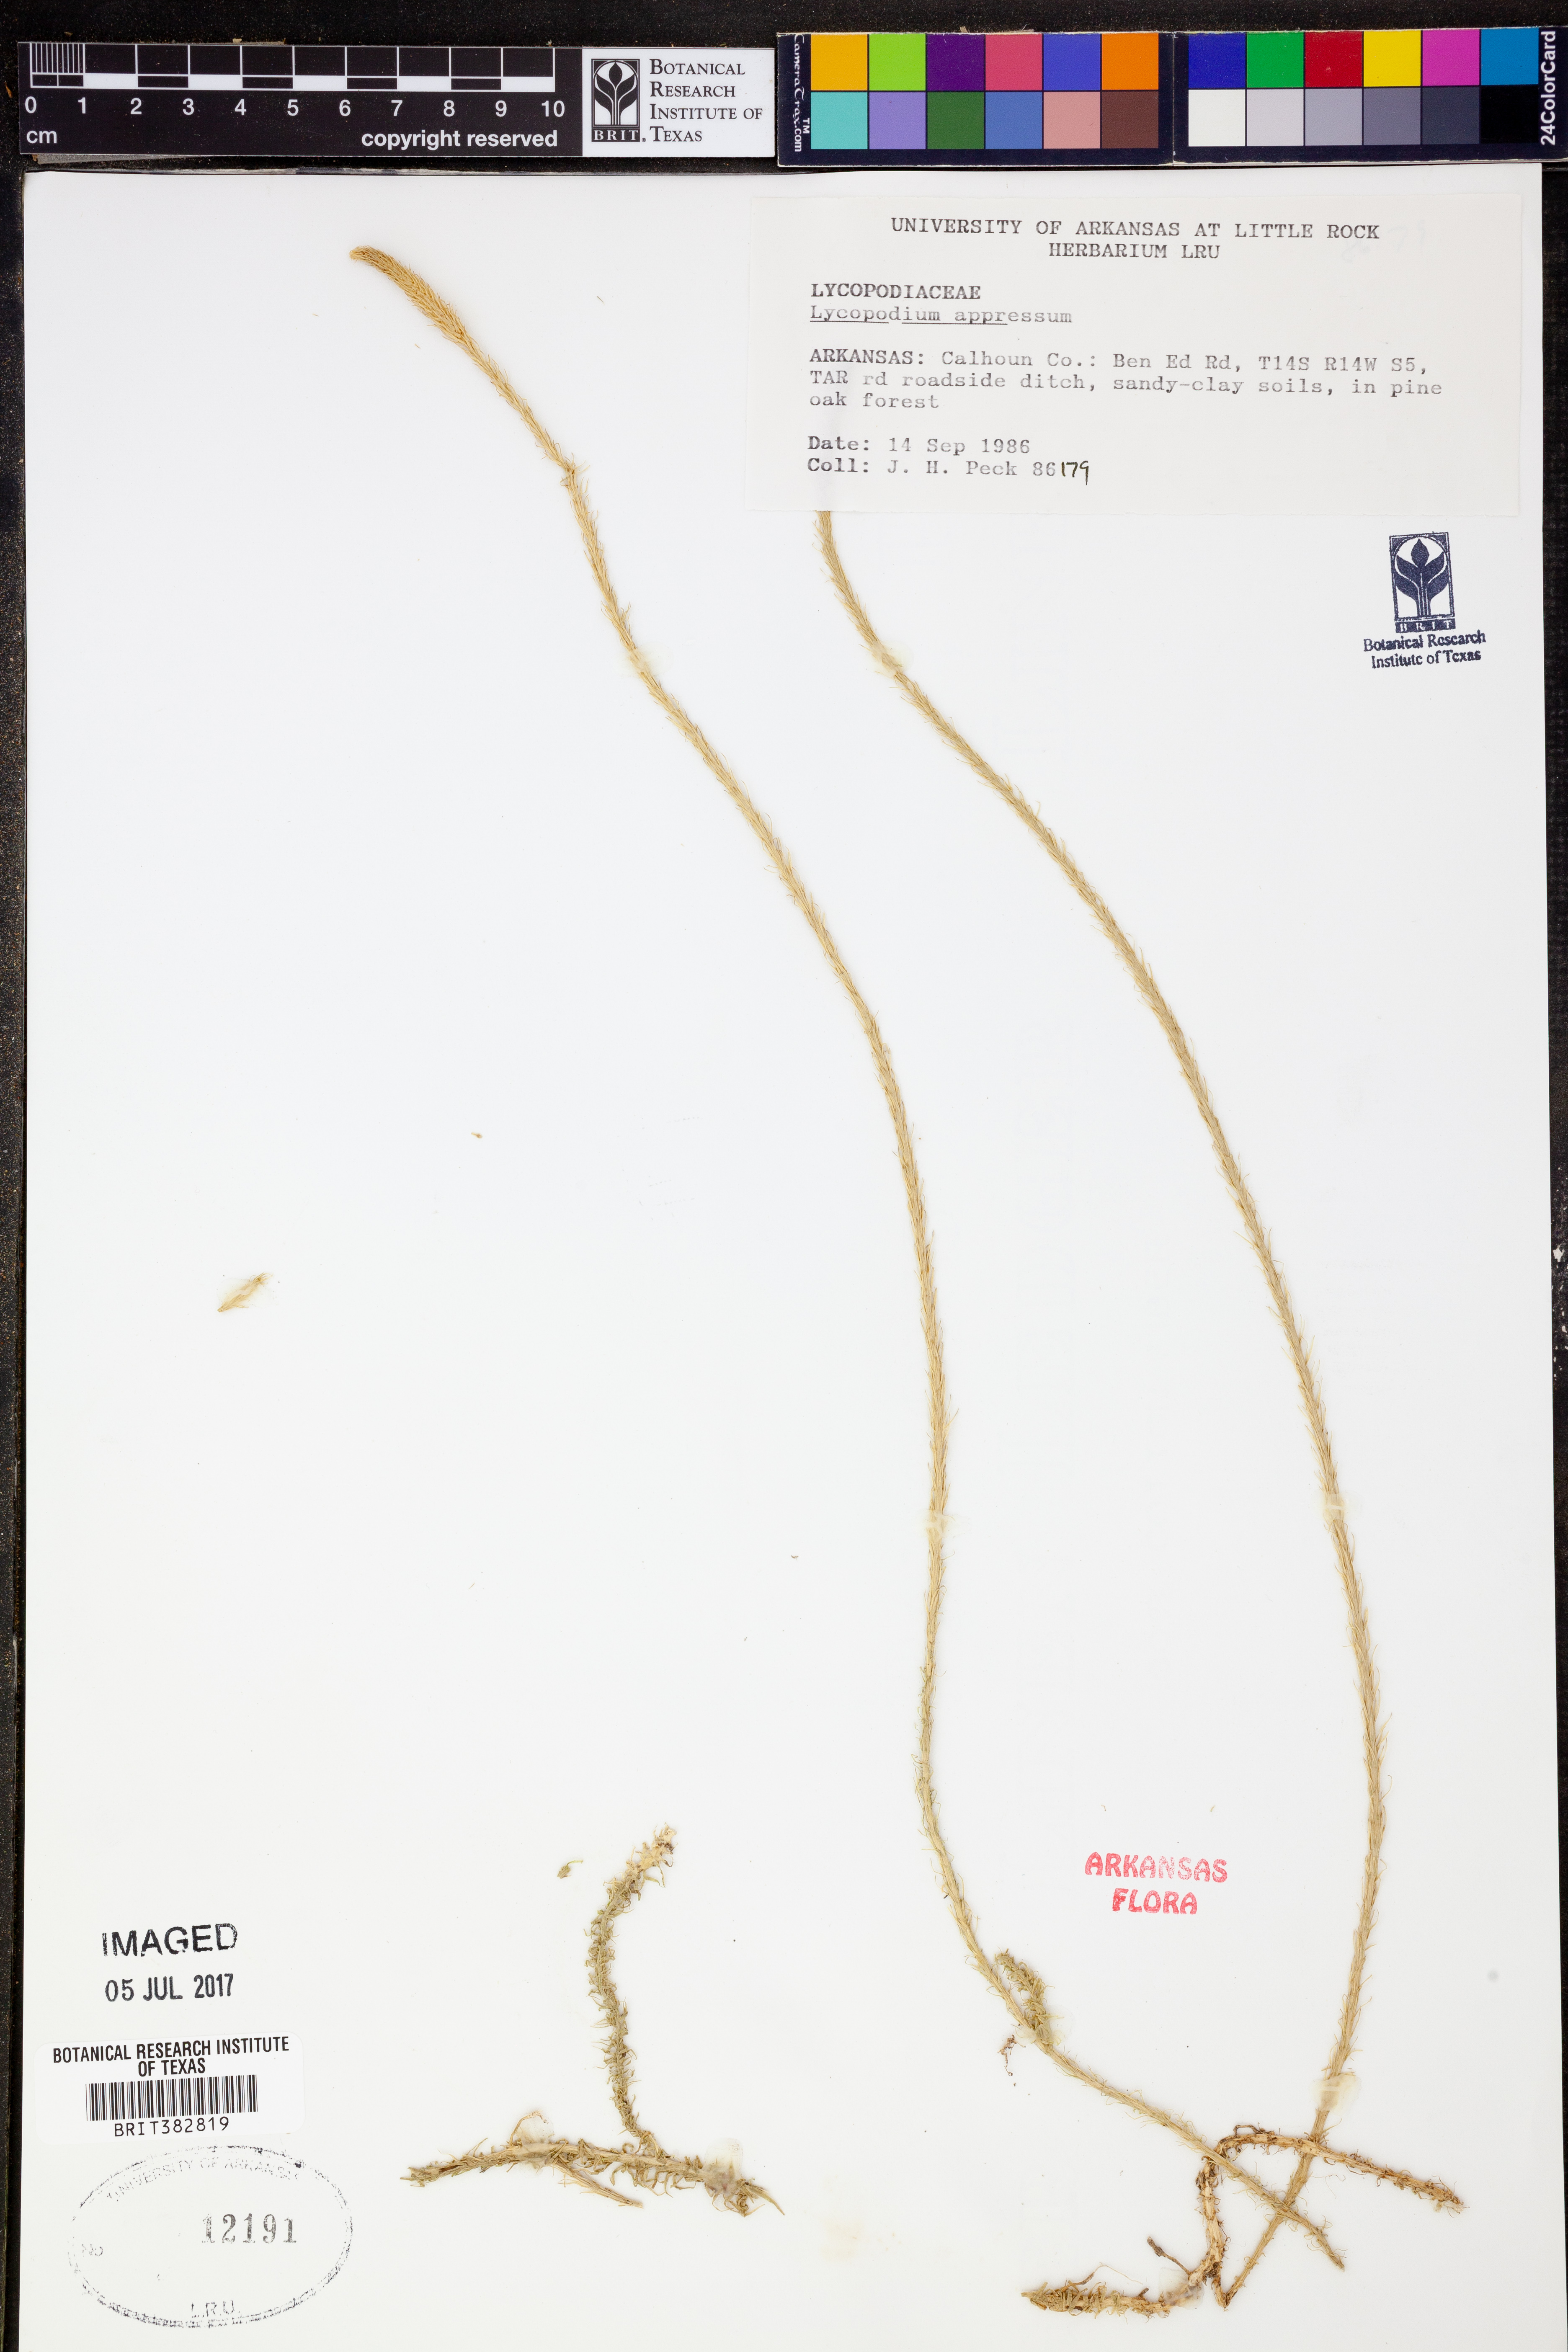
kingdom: Plantae
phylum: Tracheophyta
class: Lycopodiopsida
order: Lycopodiales
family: Lycopodiaceae
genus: Lycopodiella
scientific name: Lycopodiella appressa
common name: Appressed bog clubmoss
